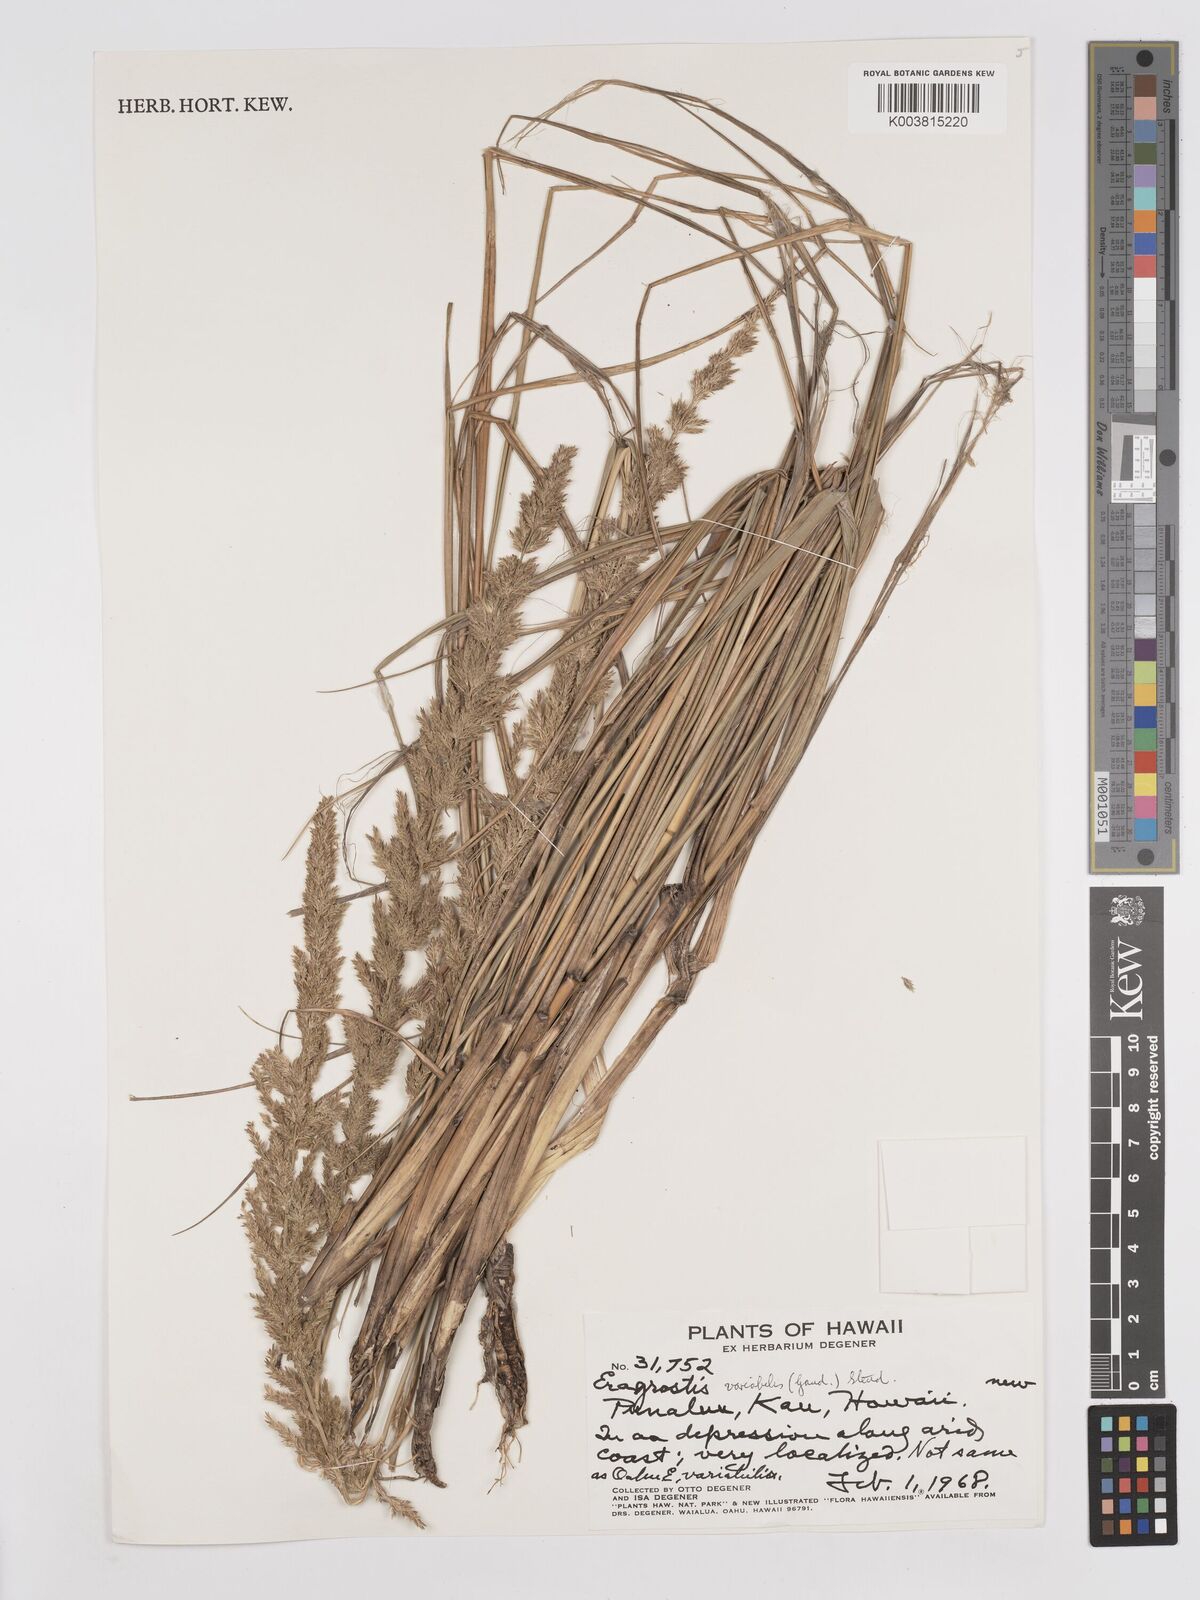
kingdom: Plantae
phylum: Tracheophyta
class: Liliopsida
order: Poales
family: Poaceae
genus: Eragrostis
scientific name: Eragrostis variabilis
